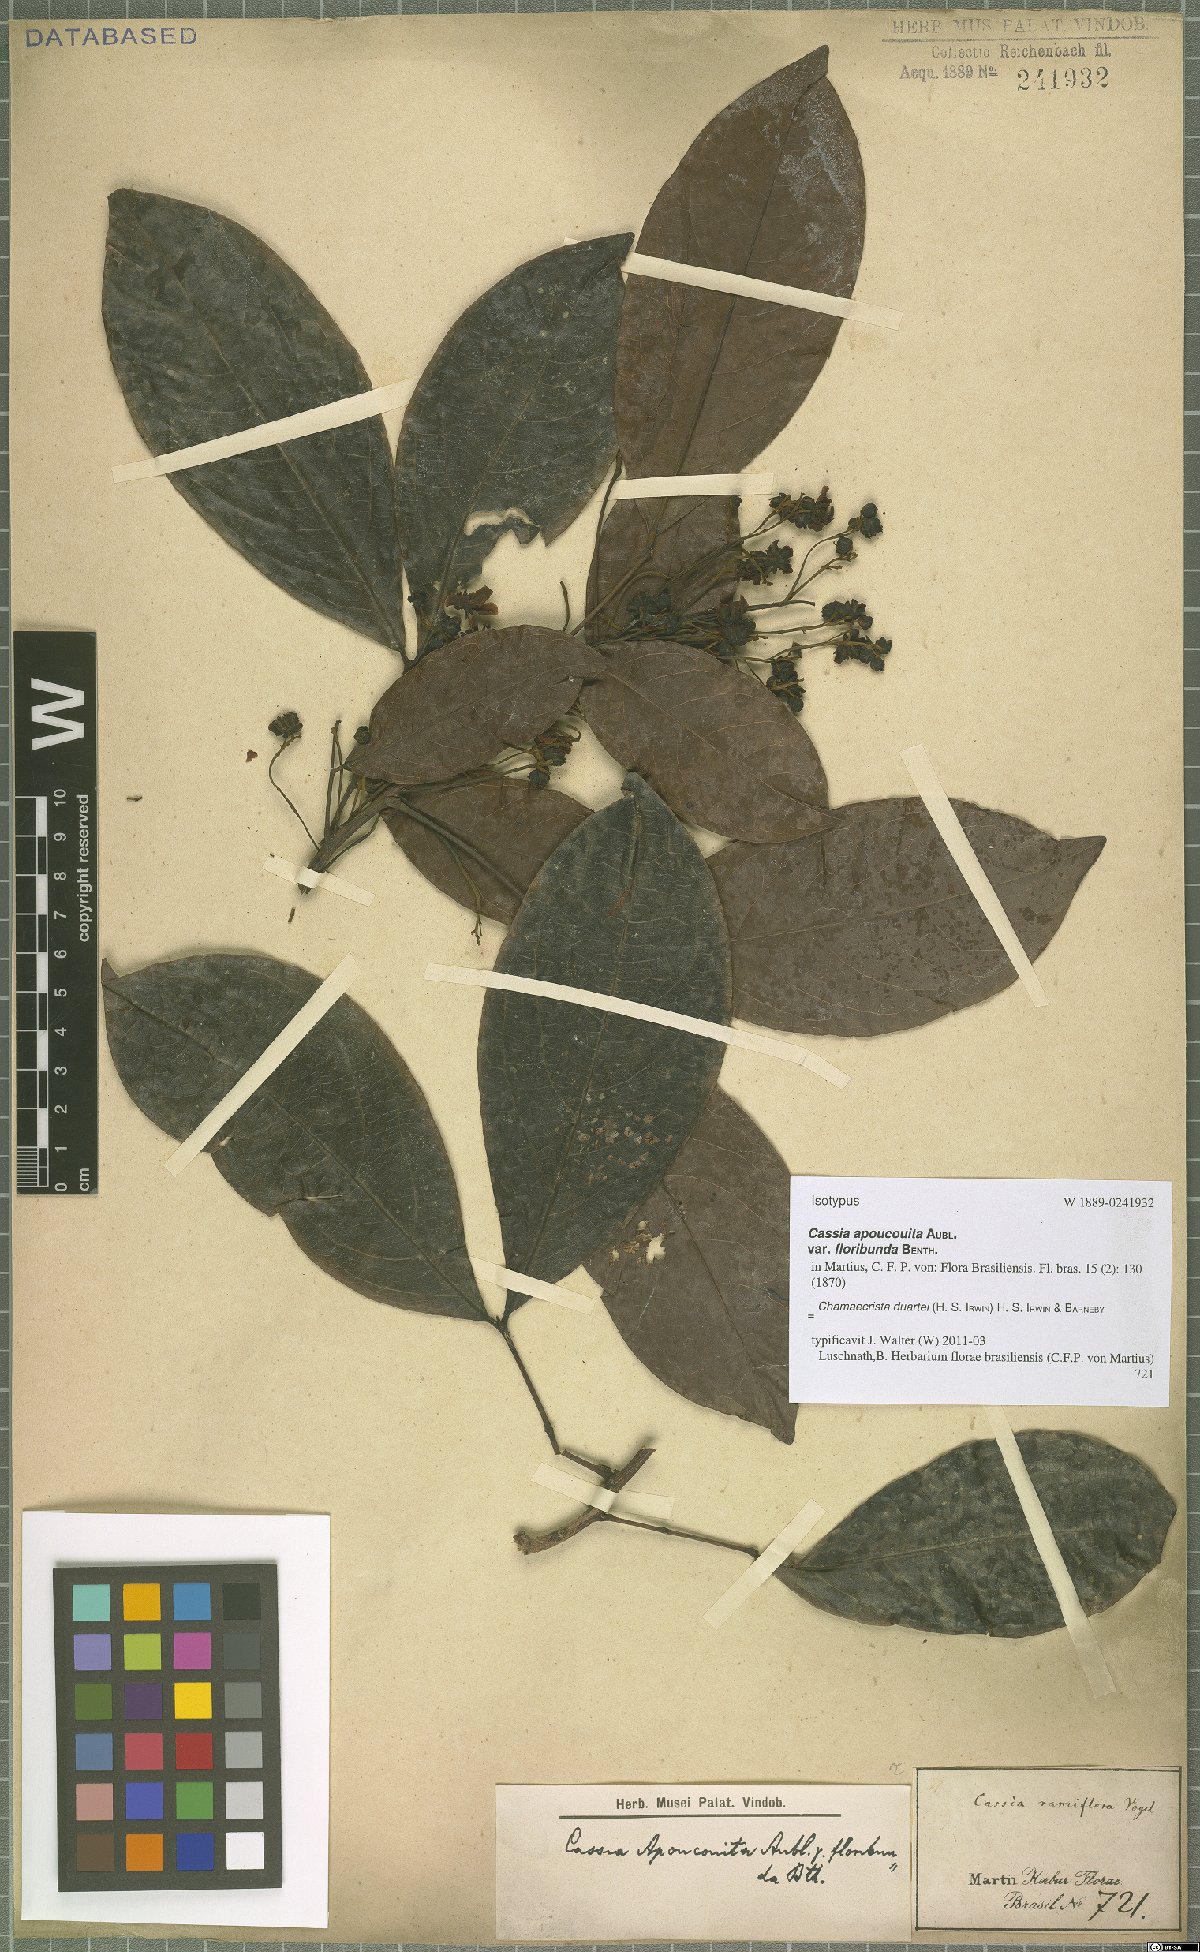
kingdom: Plantae
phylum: Tracheophyta
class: Magnoliopsida
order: Fabales
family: Fabaceae
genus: Chamaecrista
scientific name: Chamaecrista duartei
